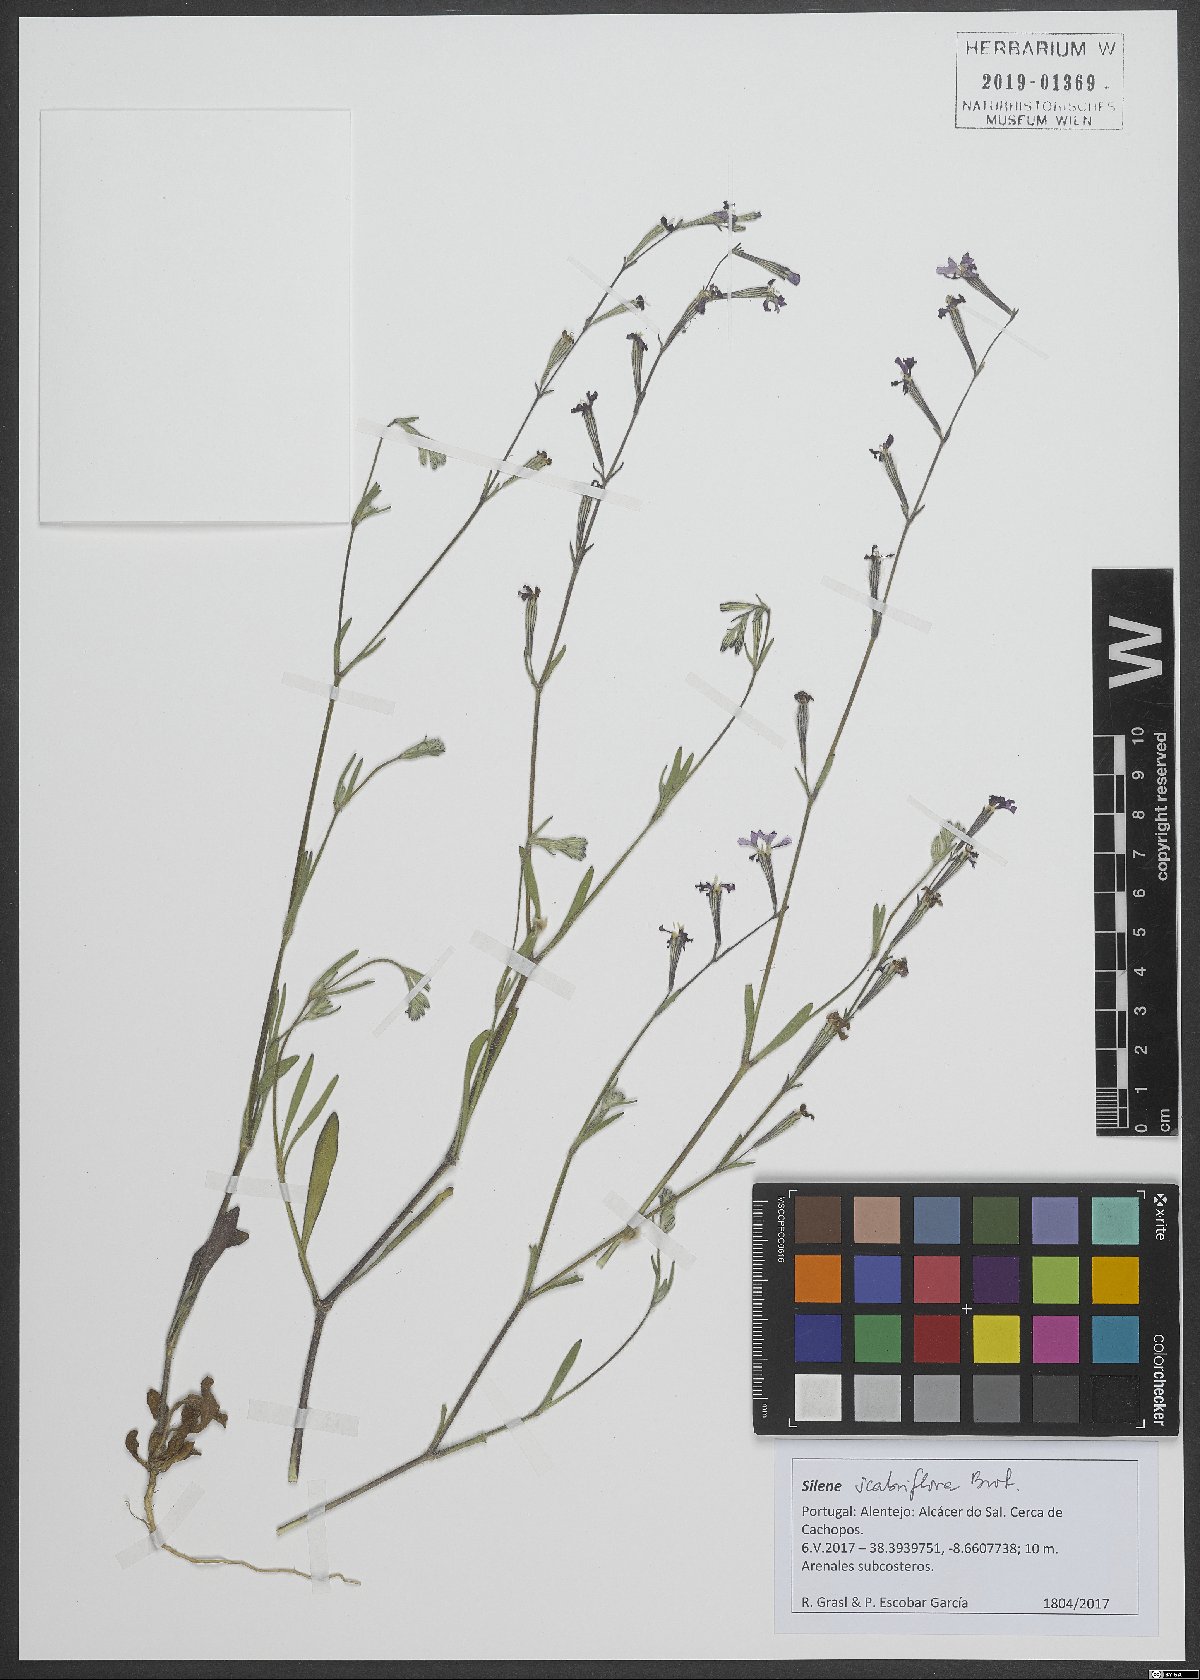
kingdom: Plantae
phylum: Tracheophyta
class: Magnoliopsida
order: Caryophyllales
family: Caryophyllaceae
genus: Silene
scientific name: Silene scabriflora
